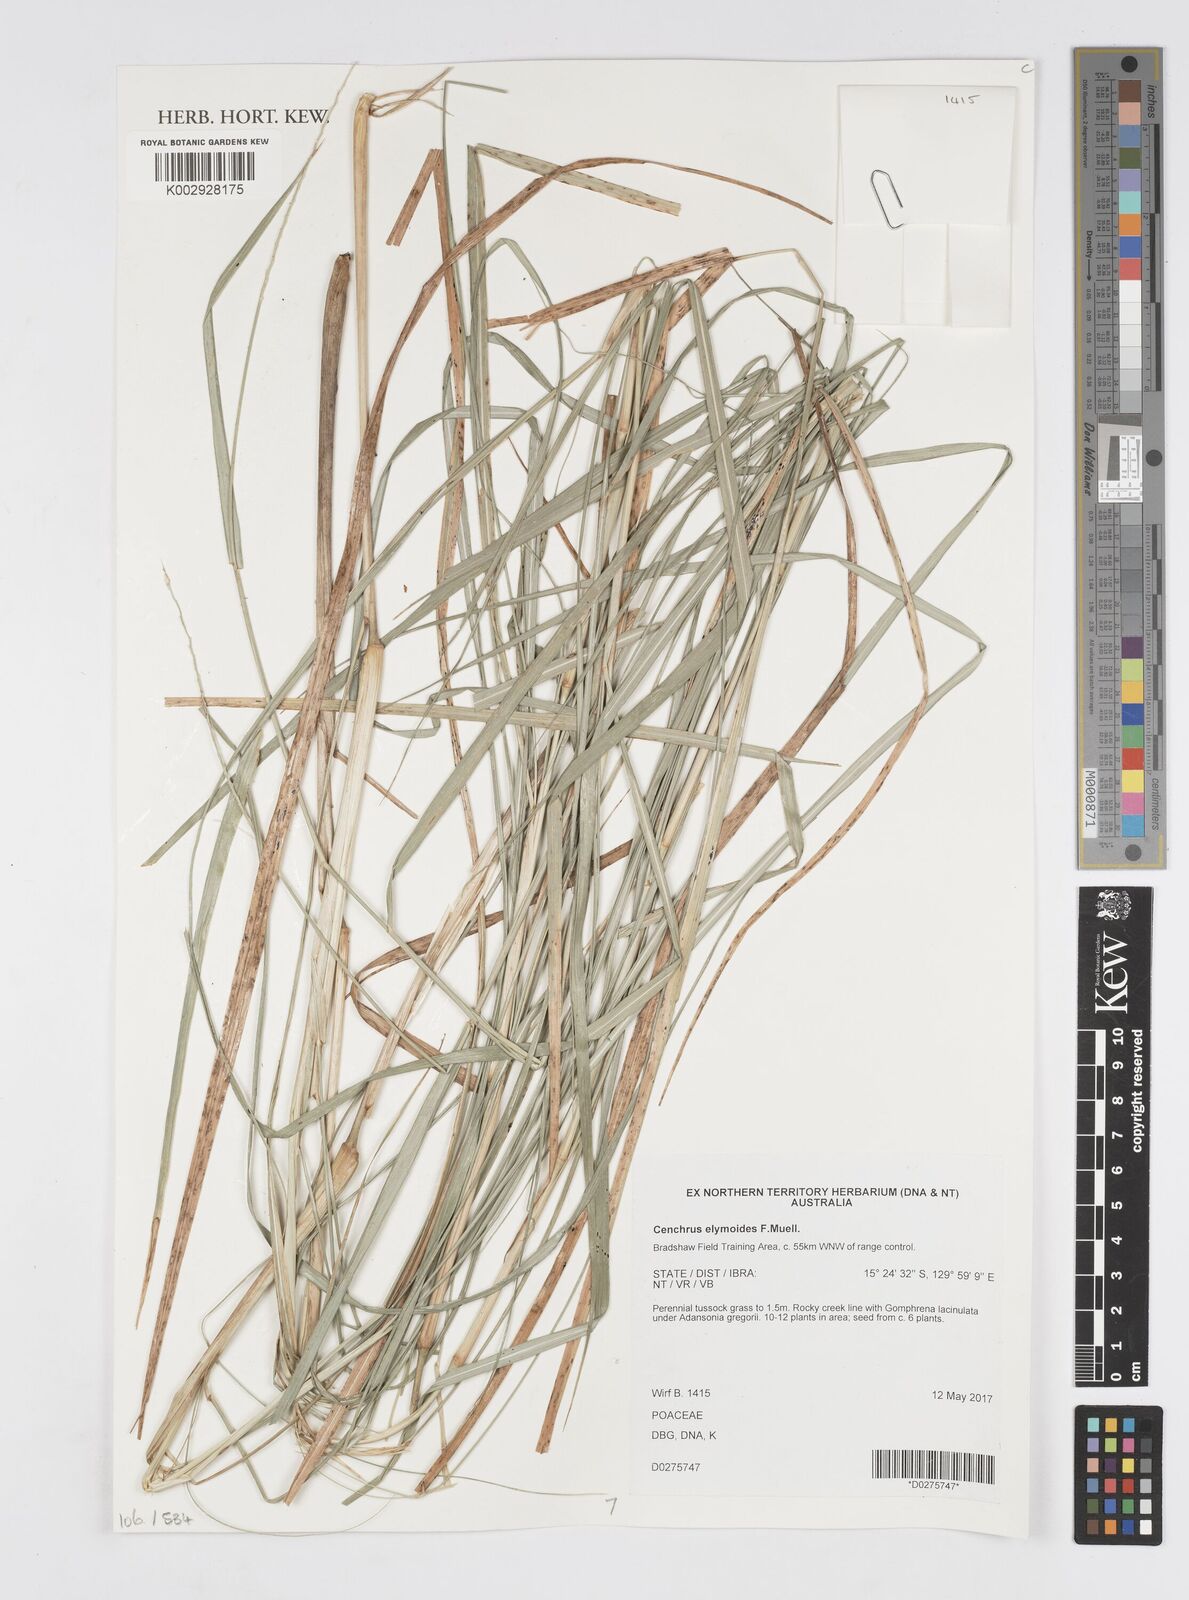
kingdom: Plantae
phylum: Tracheophyta
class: Liliopsida
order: Poales
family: Poaceae
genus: Cenchrus
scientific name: Cenchrus elymoides
